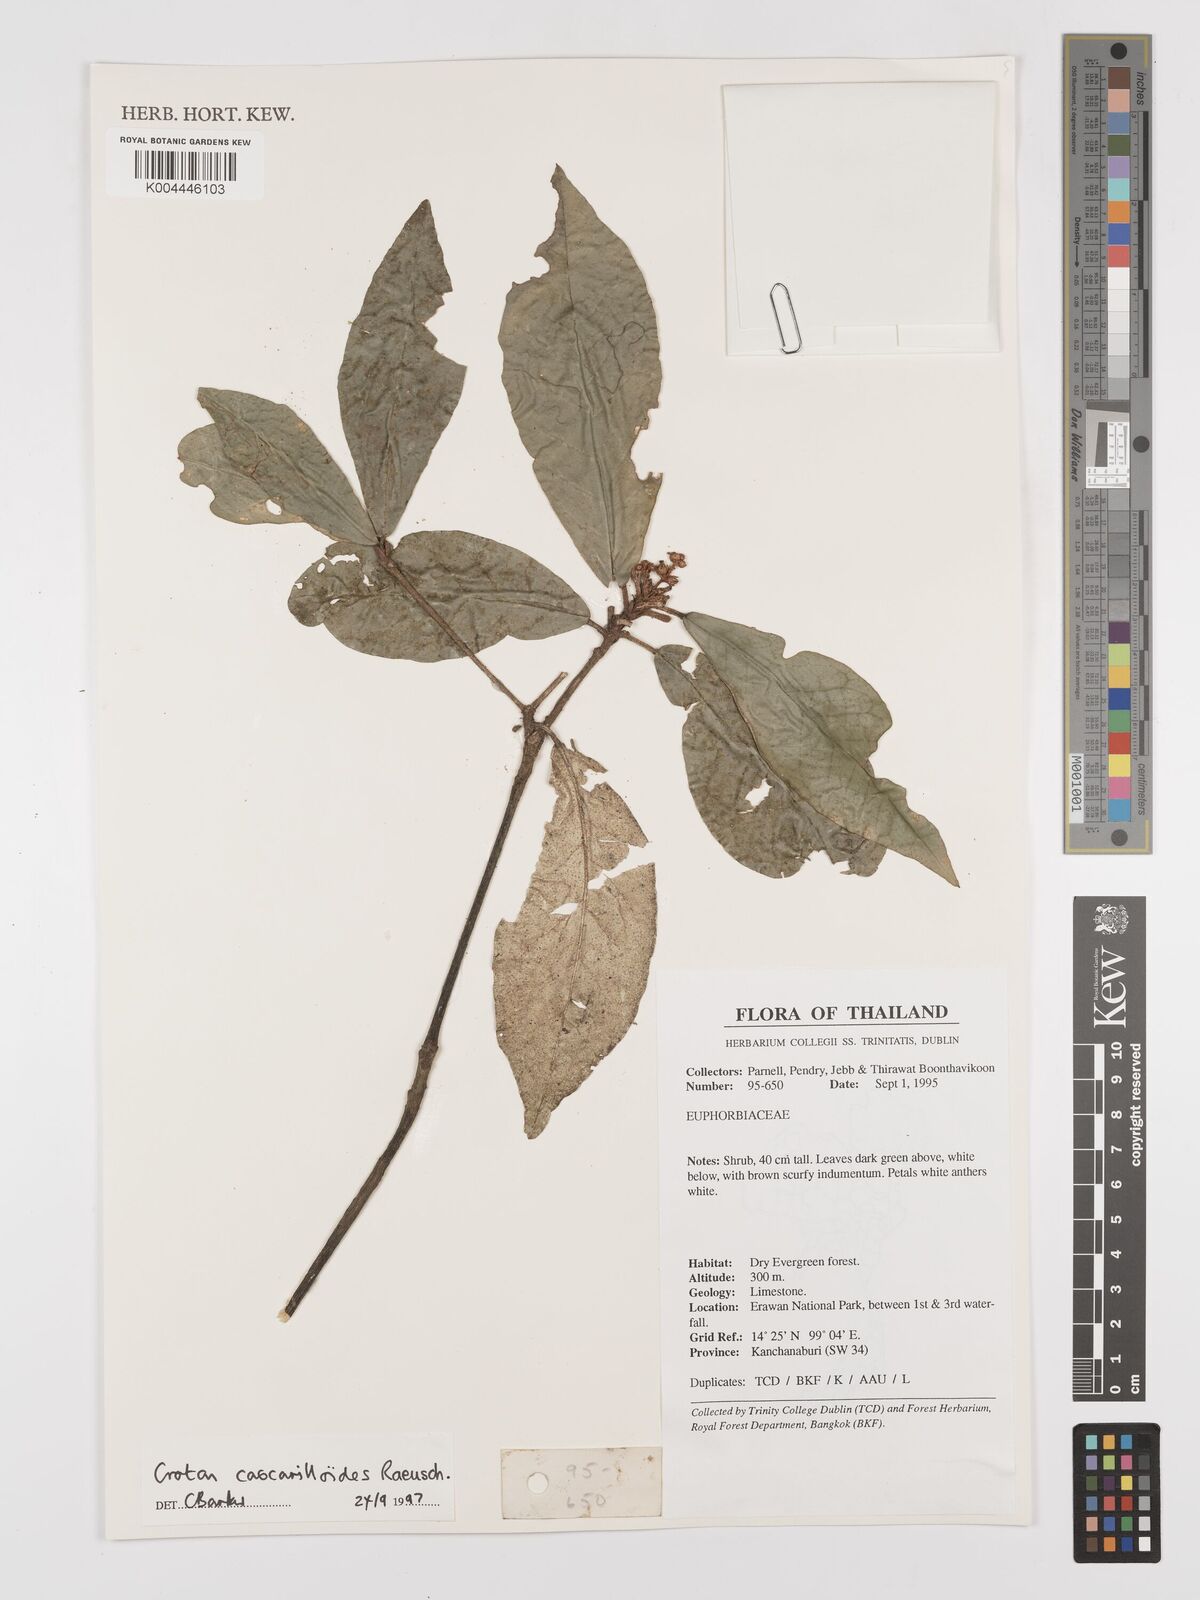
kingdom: Plantae
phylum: Tracheophyta
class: Magnoliopsida
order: Malpighiales
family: Euphorbiaceae
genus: Croton
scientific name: Croton cascarilloides
